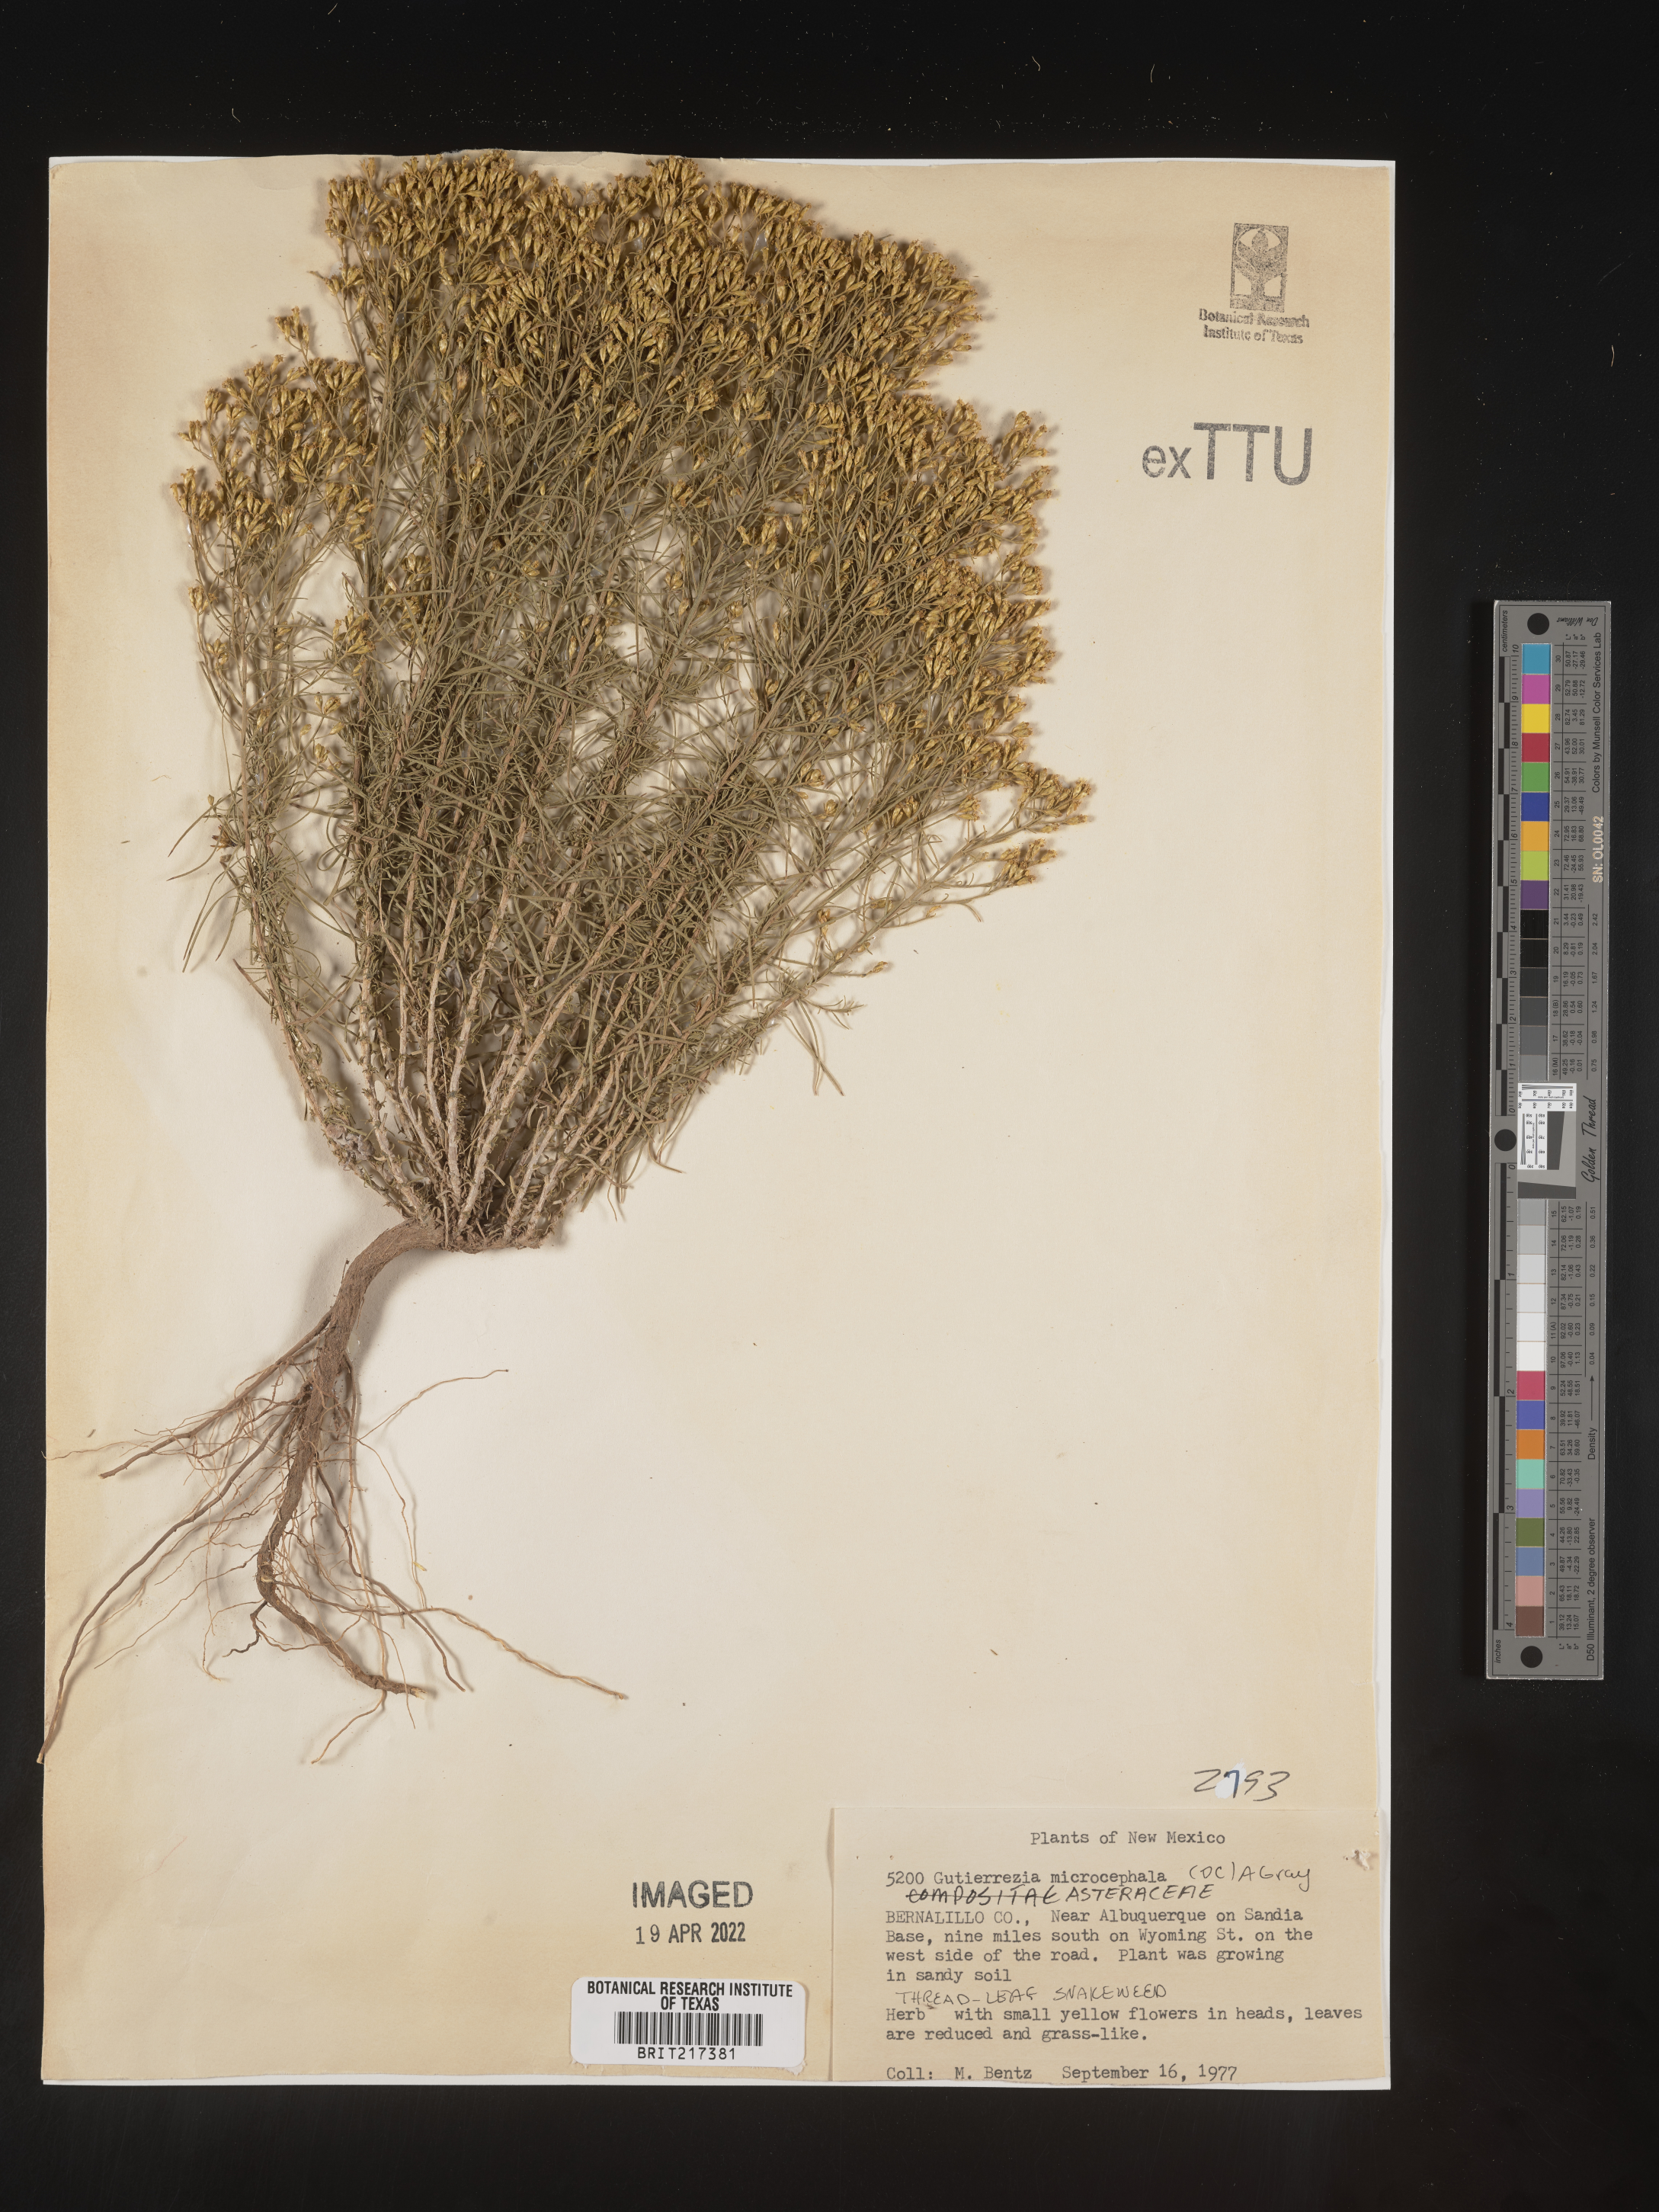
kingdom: Plantae
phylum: Tracheophyta
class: Magnoliopsida
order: Asterales
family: Asteraceae
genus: Gutierrezia
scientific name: Gutierrezia microcephala
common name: Thread snakeweed
